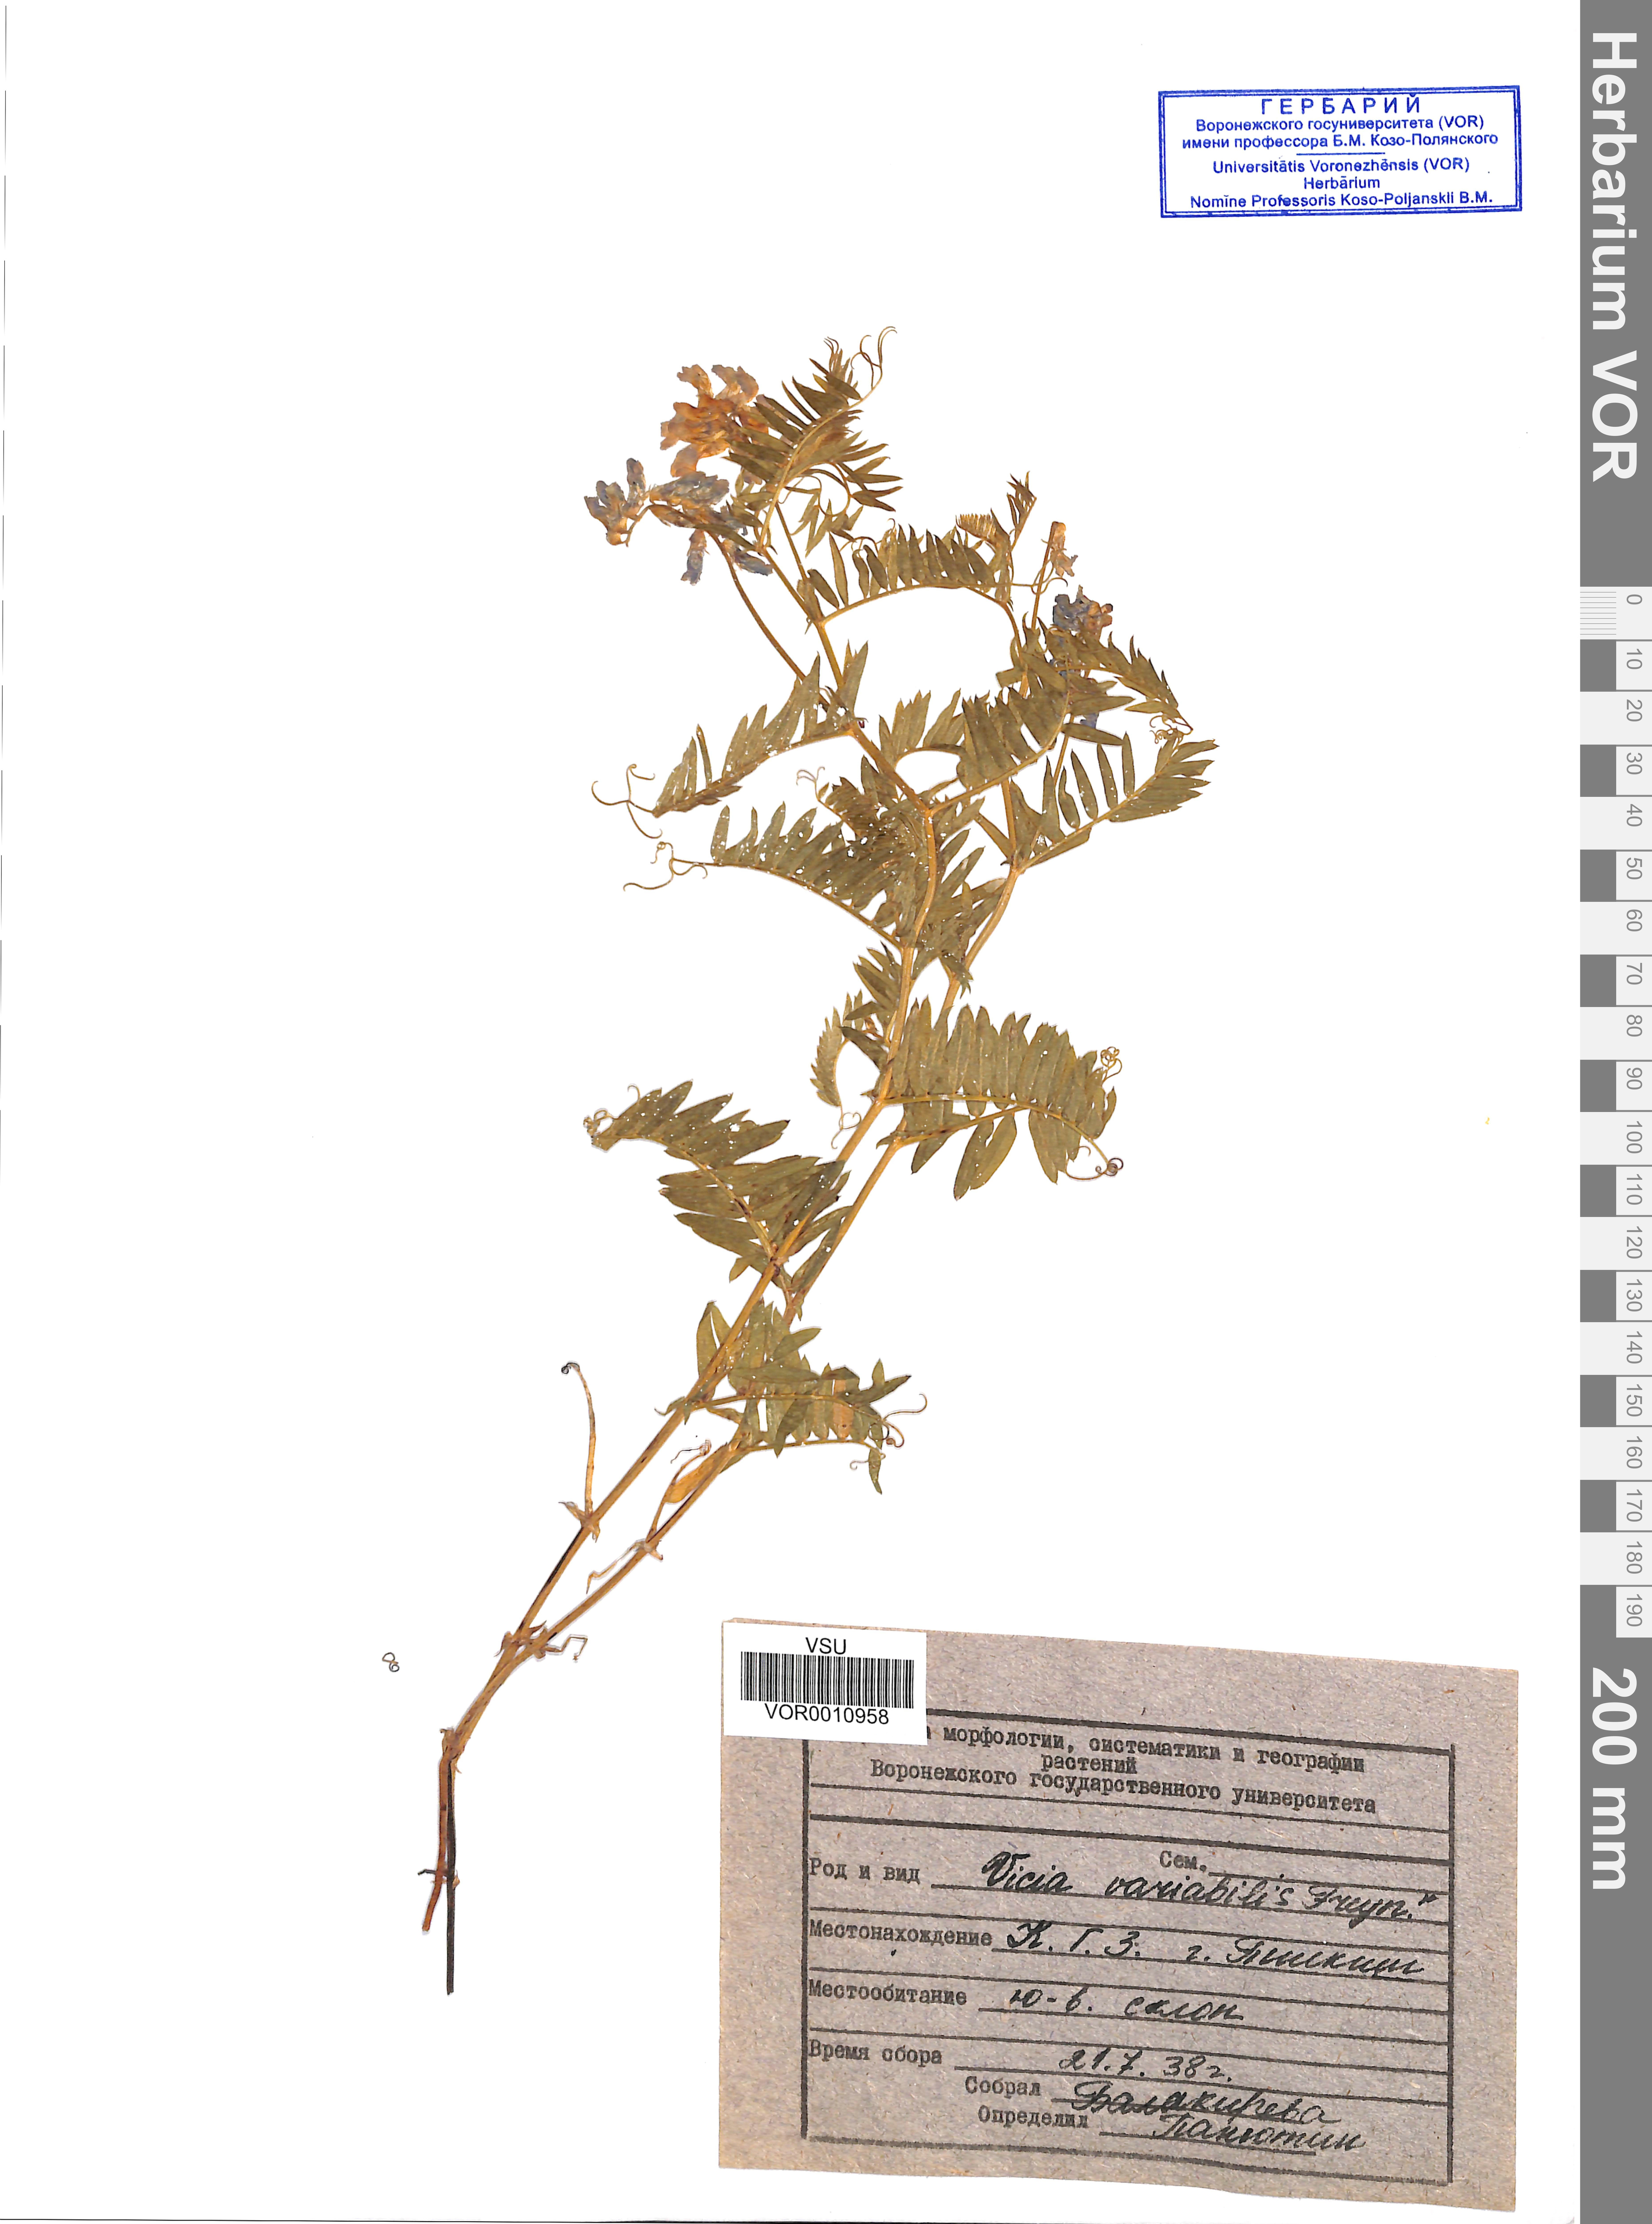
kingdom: Plantae
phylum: Tracheophyta
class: Magnoliopsida
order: Fabales
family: Fabaceae
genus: Vicia
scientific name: Vicia tenuifolia
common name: Fine-leaved vetch
